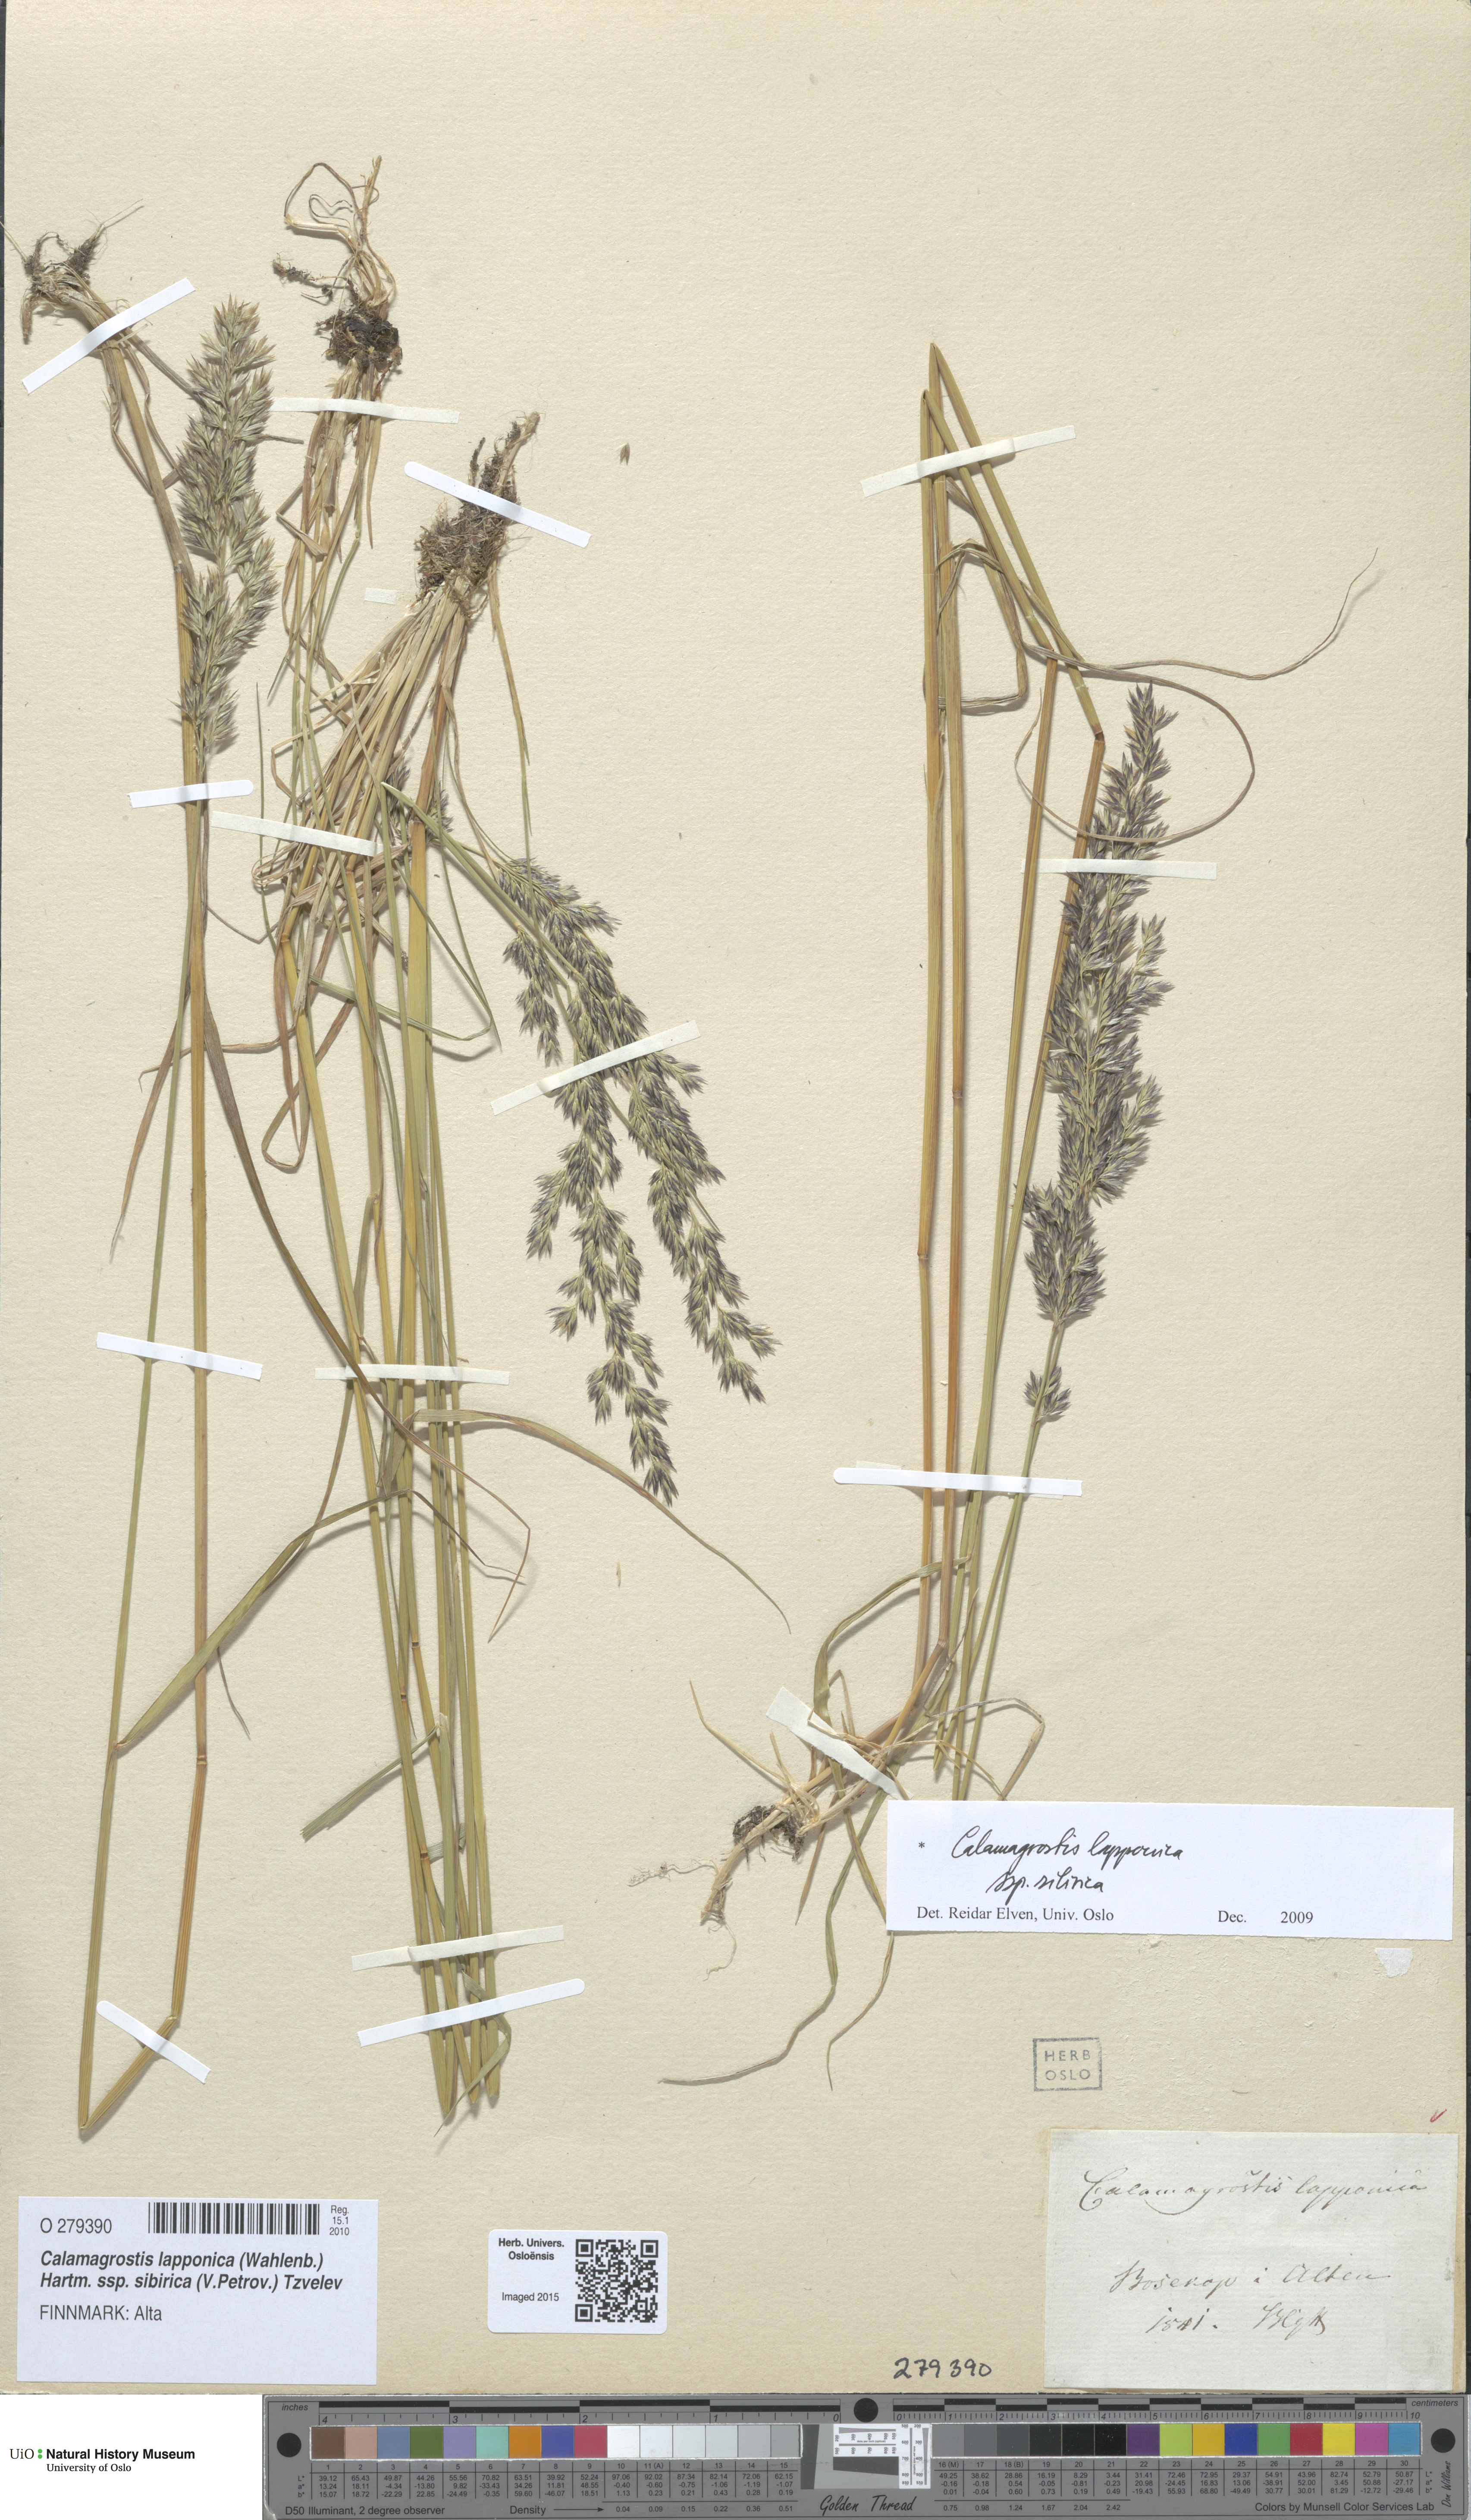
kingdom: Plantae
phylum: Tracheophyta
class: Liliopsida
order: Poales
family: Poaceae
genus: Calamagrostis
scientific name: Calamagrostis lapponica
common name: Lapland reedgrass
